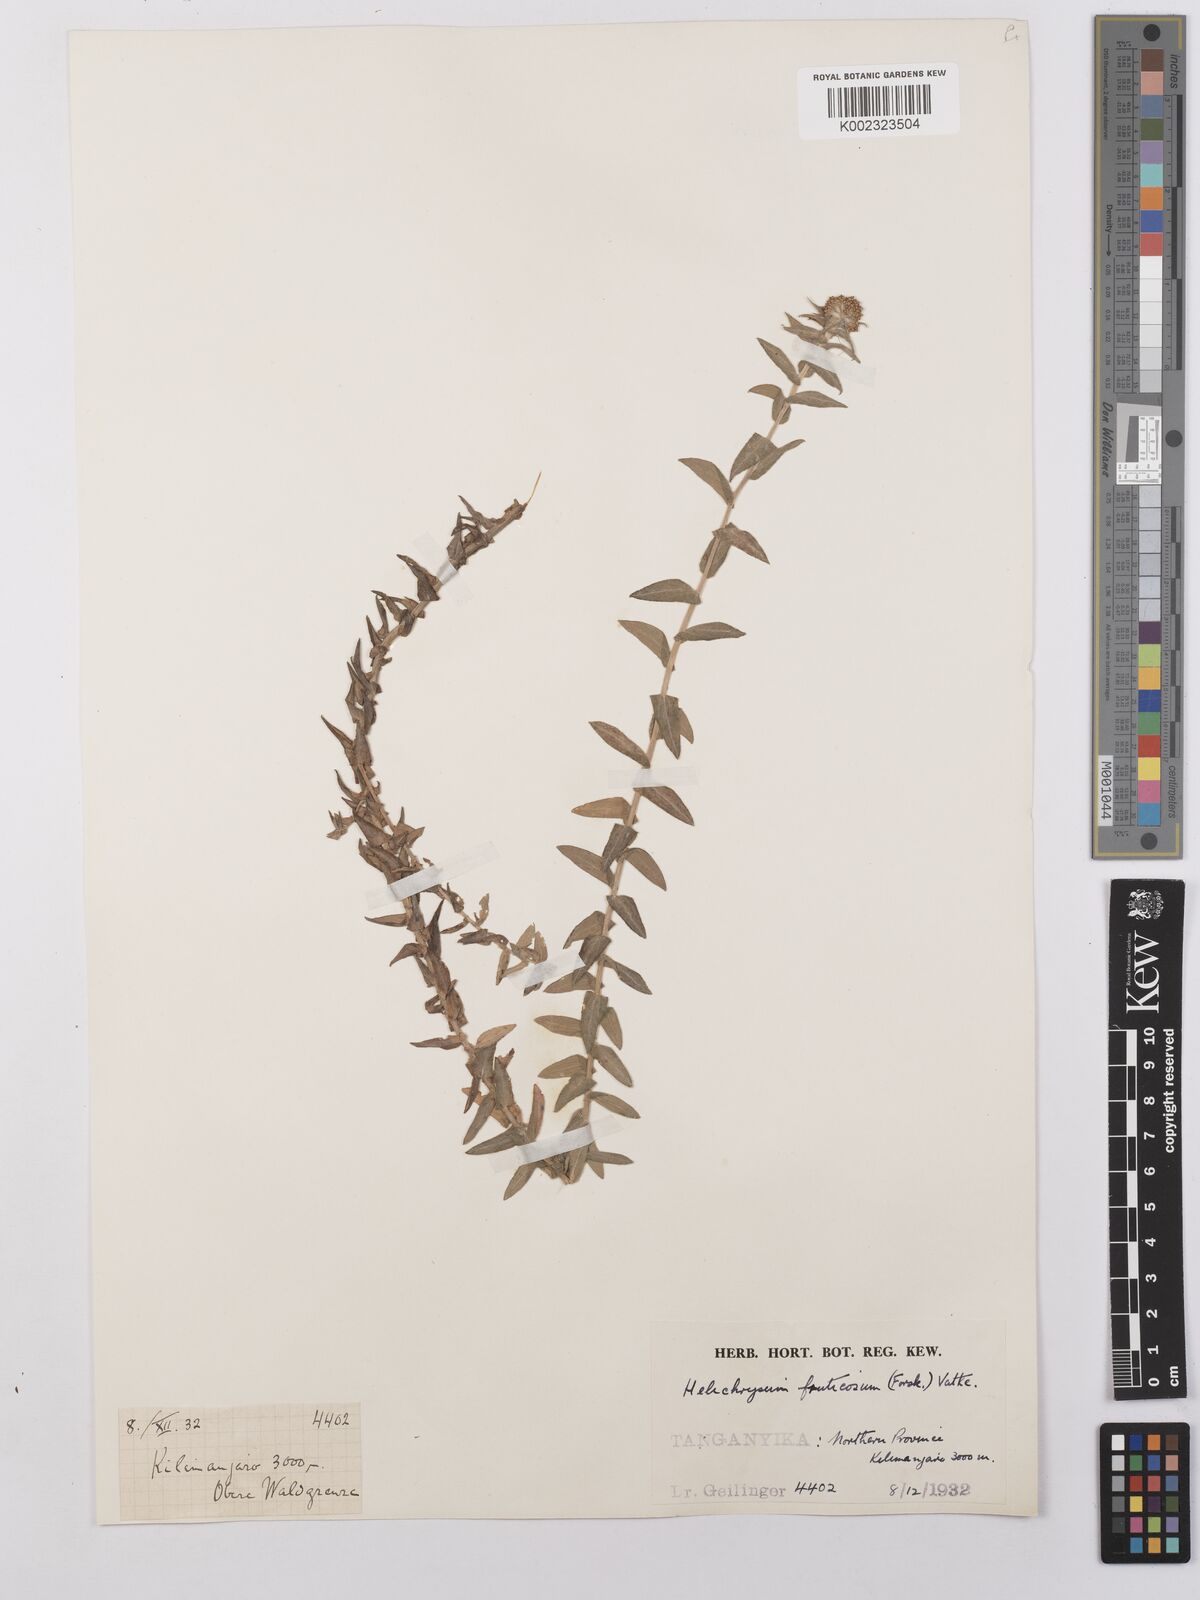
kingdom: Plantae
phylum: Tracheophyta
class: Magnoliopsida
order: Asterales
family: Asteraceae
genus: Helichrysum
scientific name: Helichrysum forskahlii
